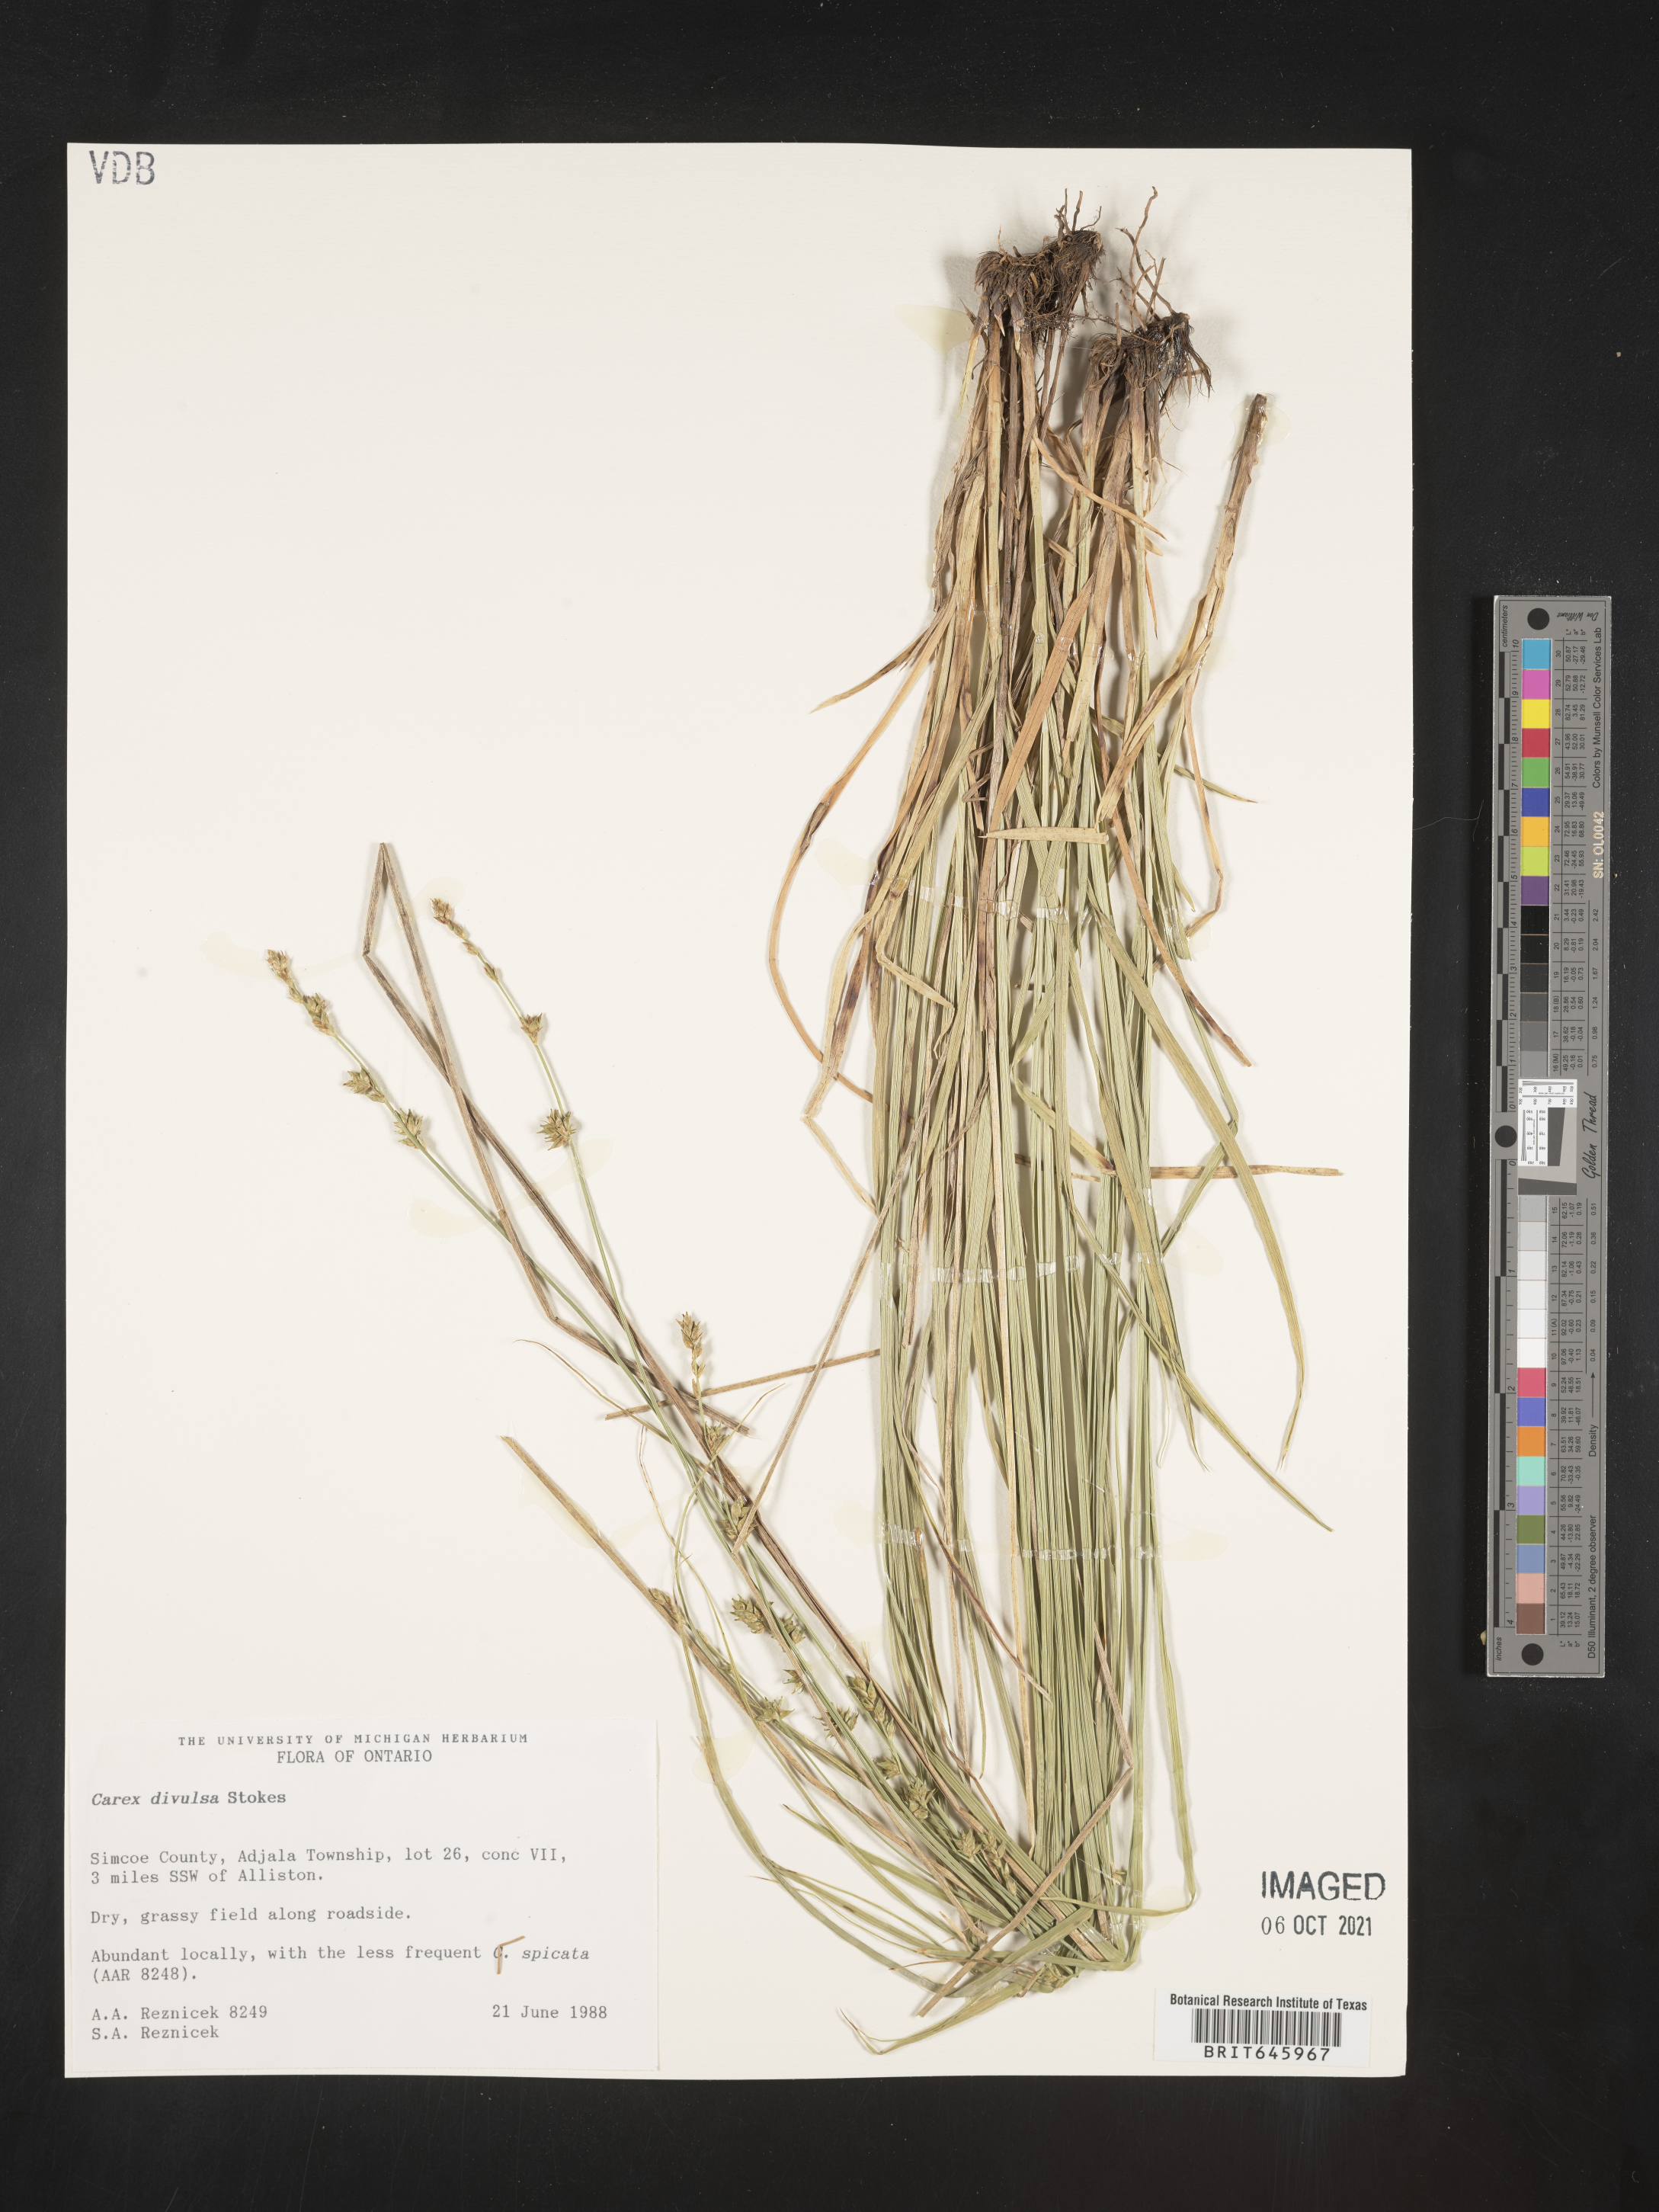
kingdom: Plantae
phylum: Tracheophyta
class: Liliopsida
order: Poales
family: Cyperaceae
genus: Carex
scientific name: Carex divulsa
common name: Grassland sedge
